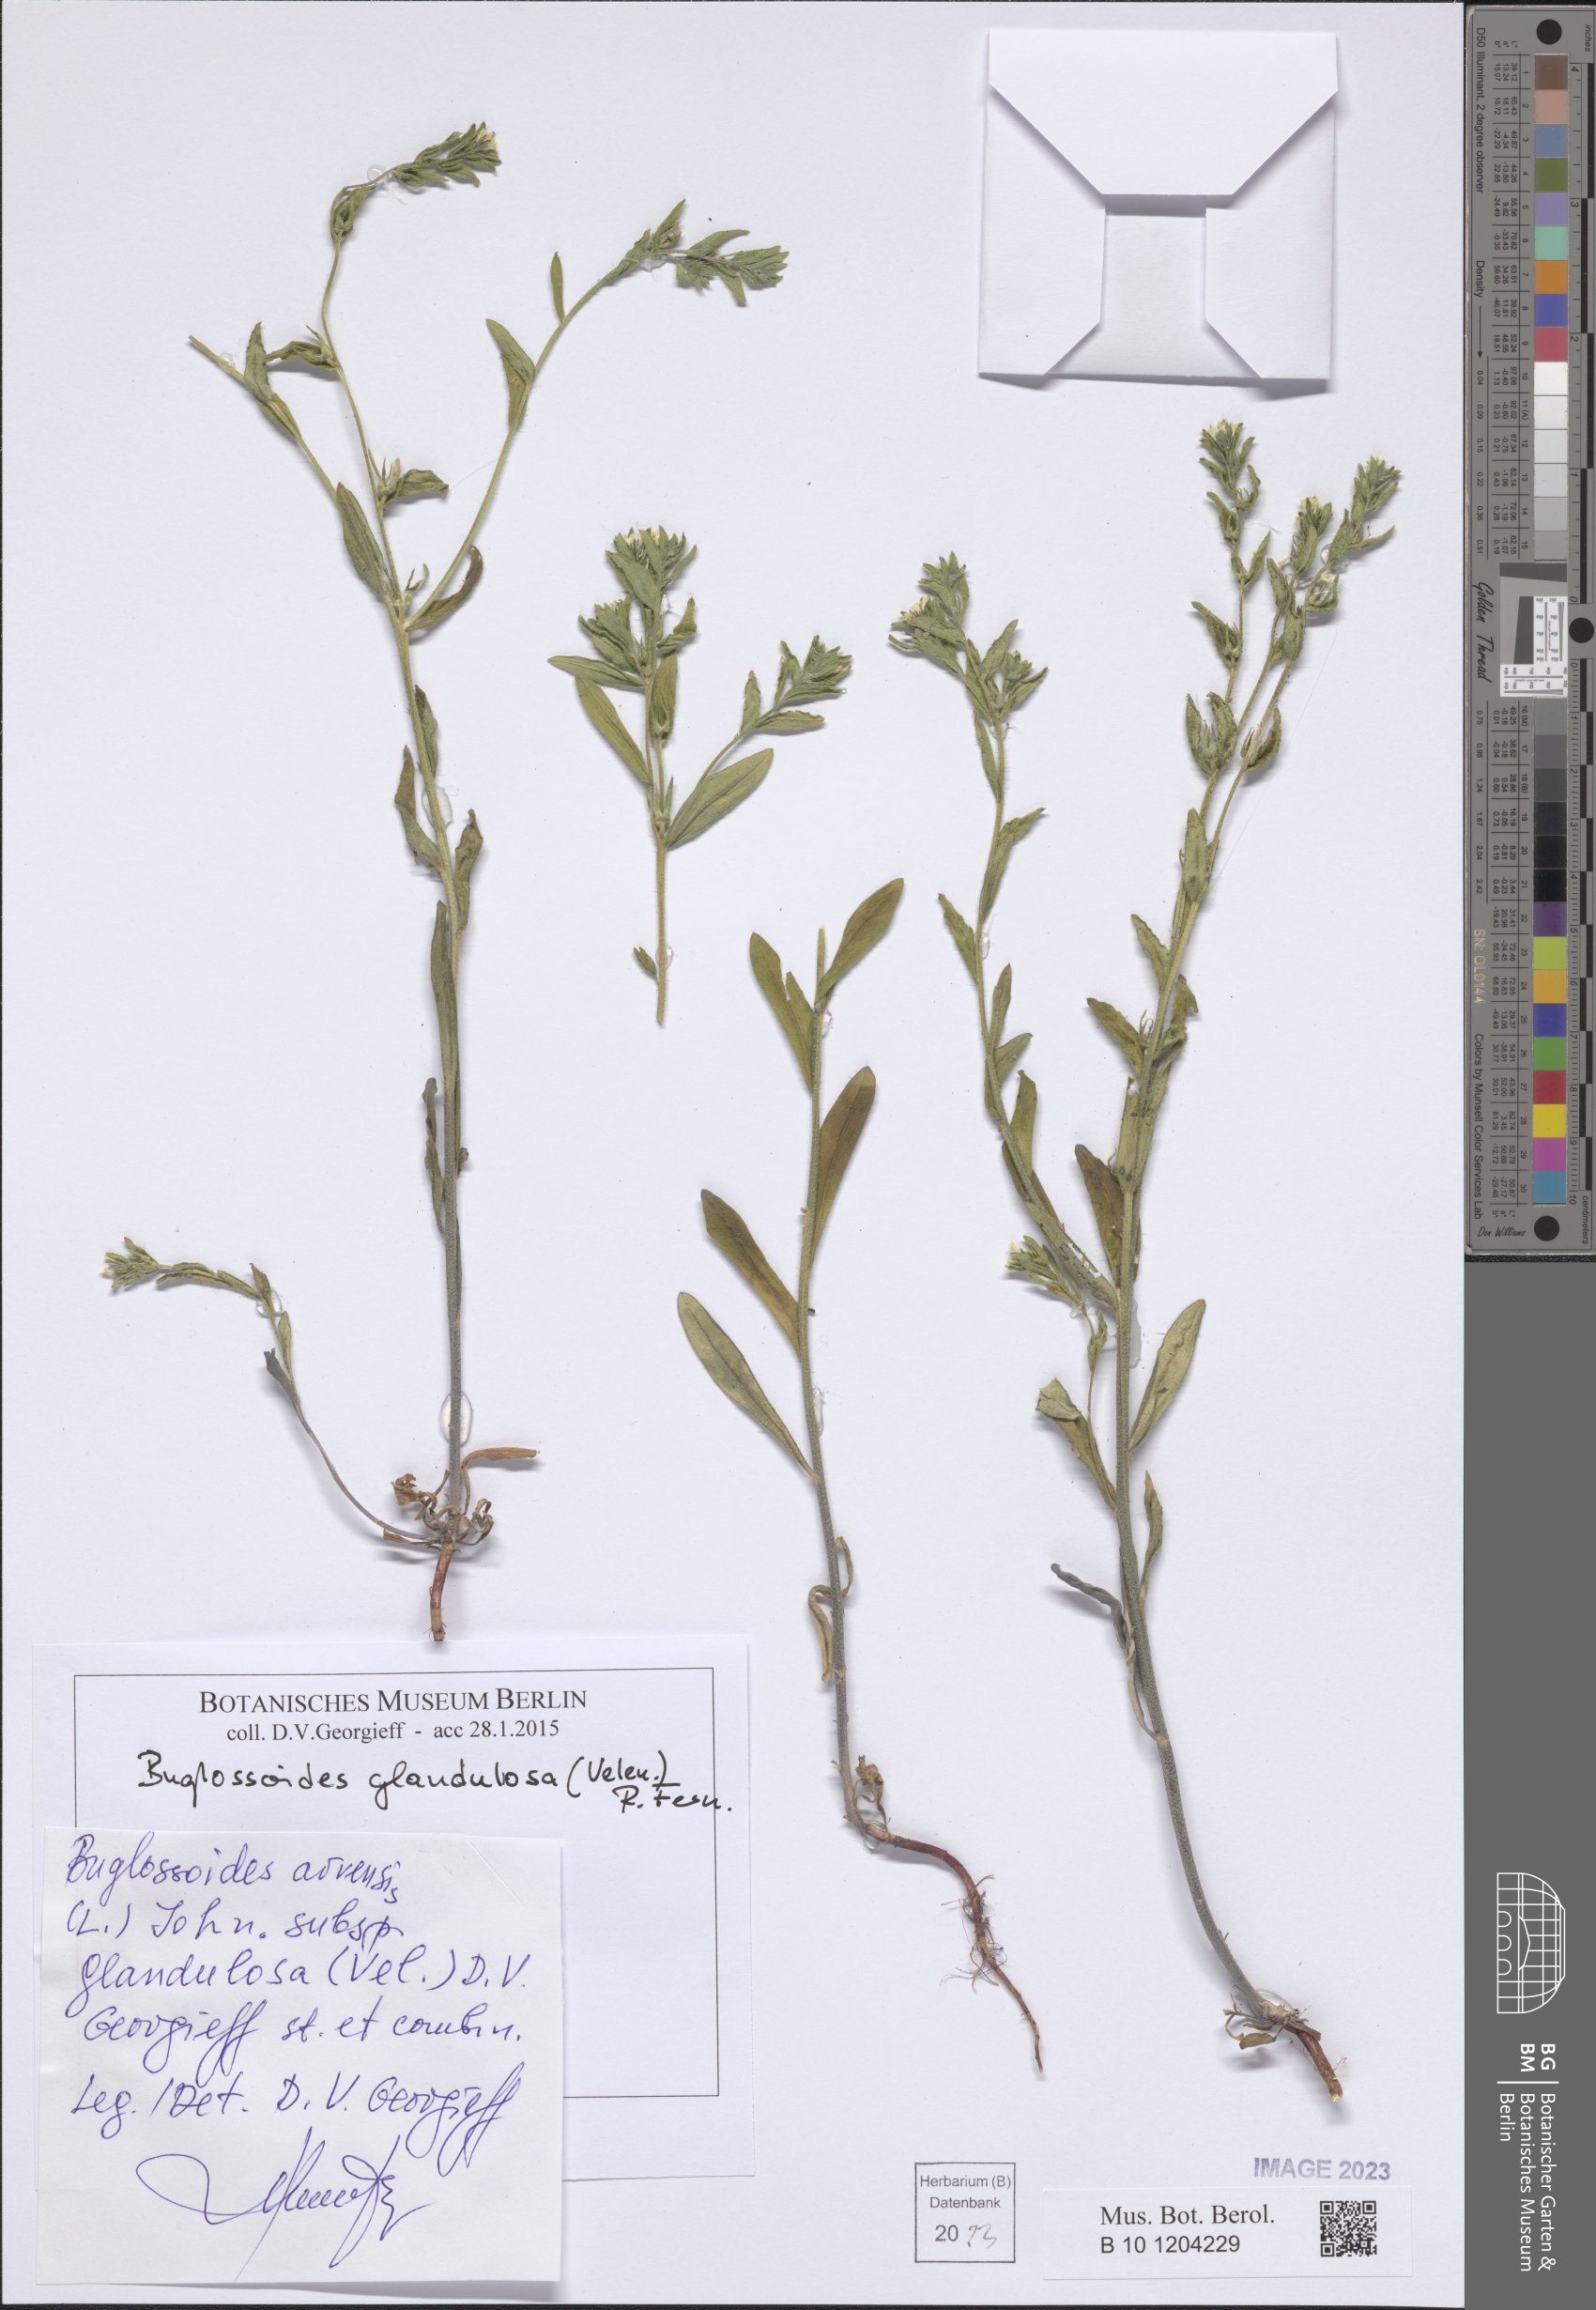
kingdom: Plantae
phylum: Tracheophyta
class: Magnoliopsida
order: Boraginales
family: Boraginaceae
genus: Buglossoides
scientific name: Buglossoides glandulosa
